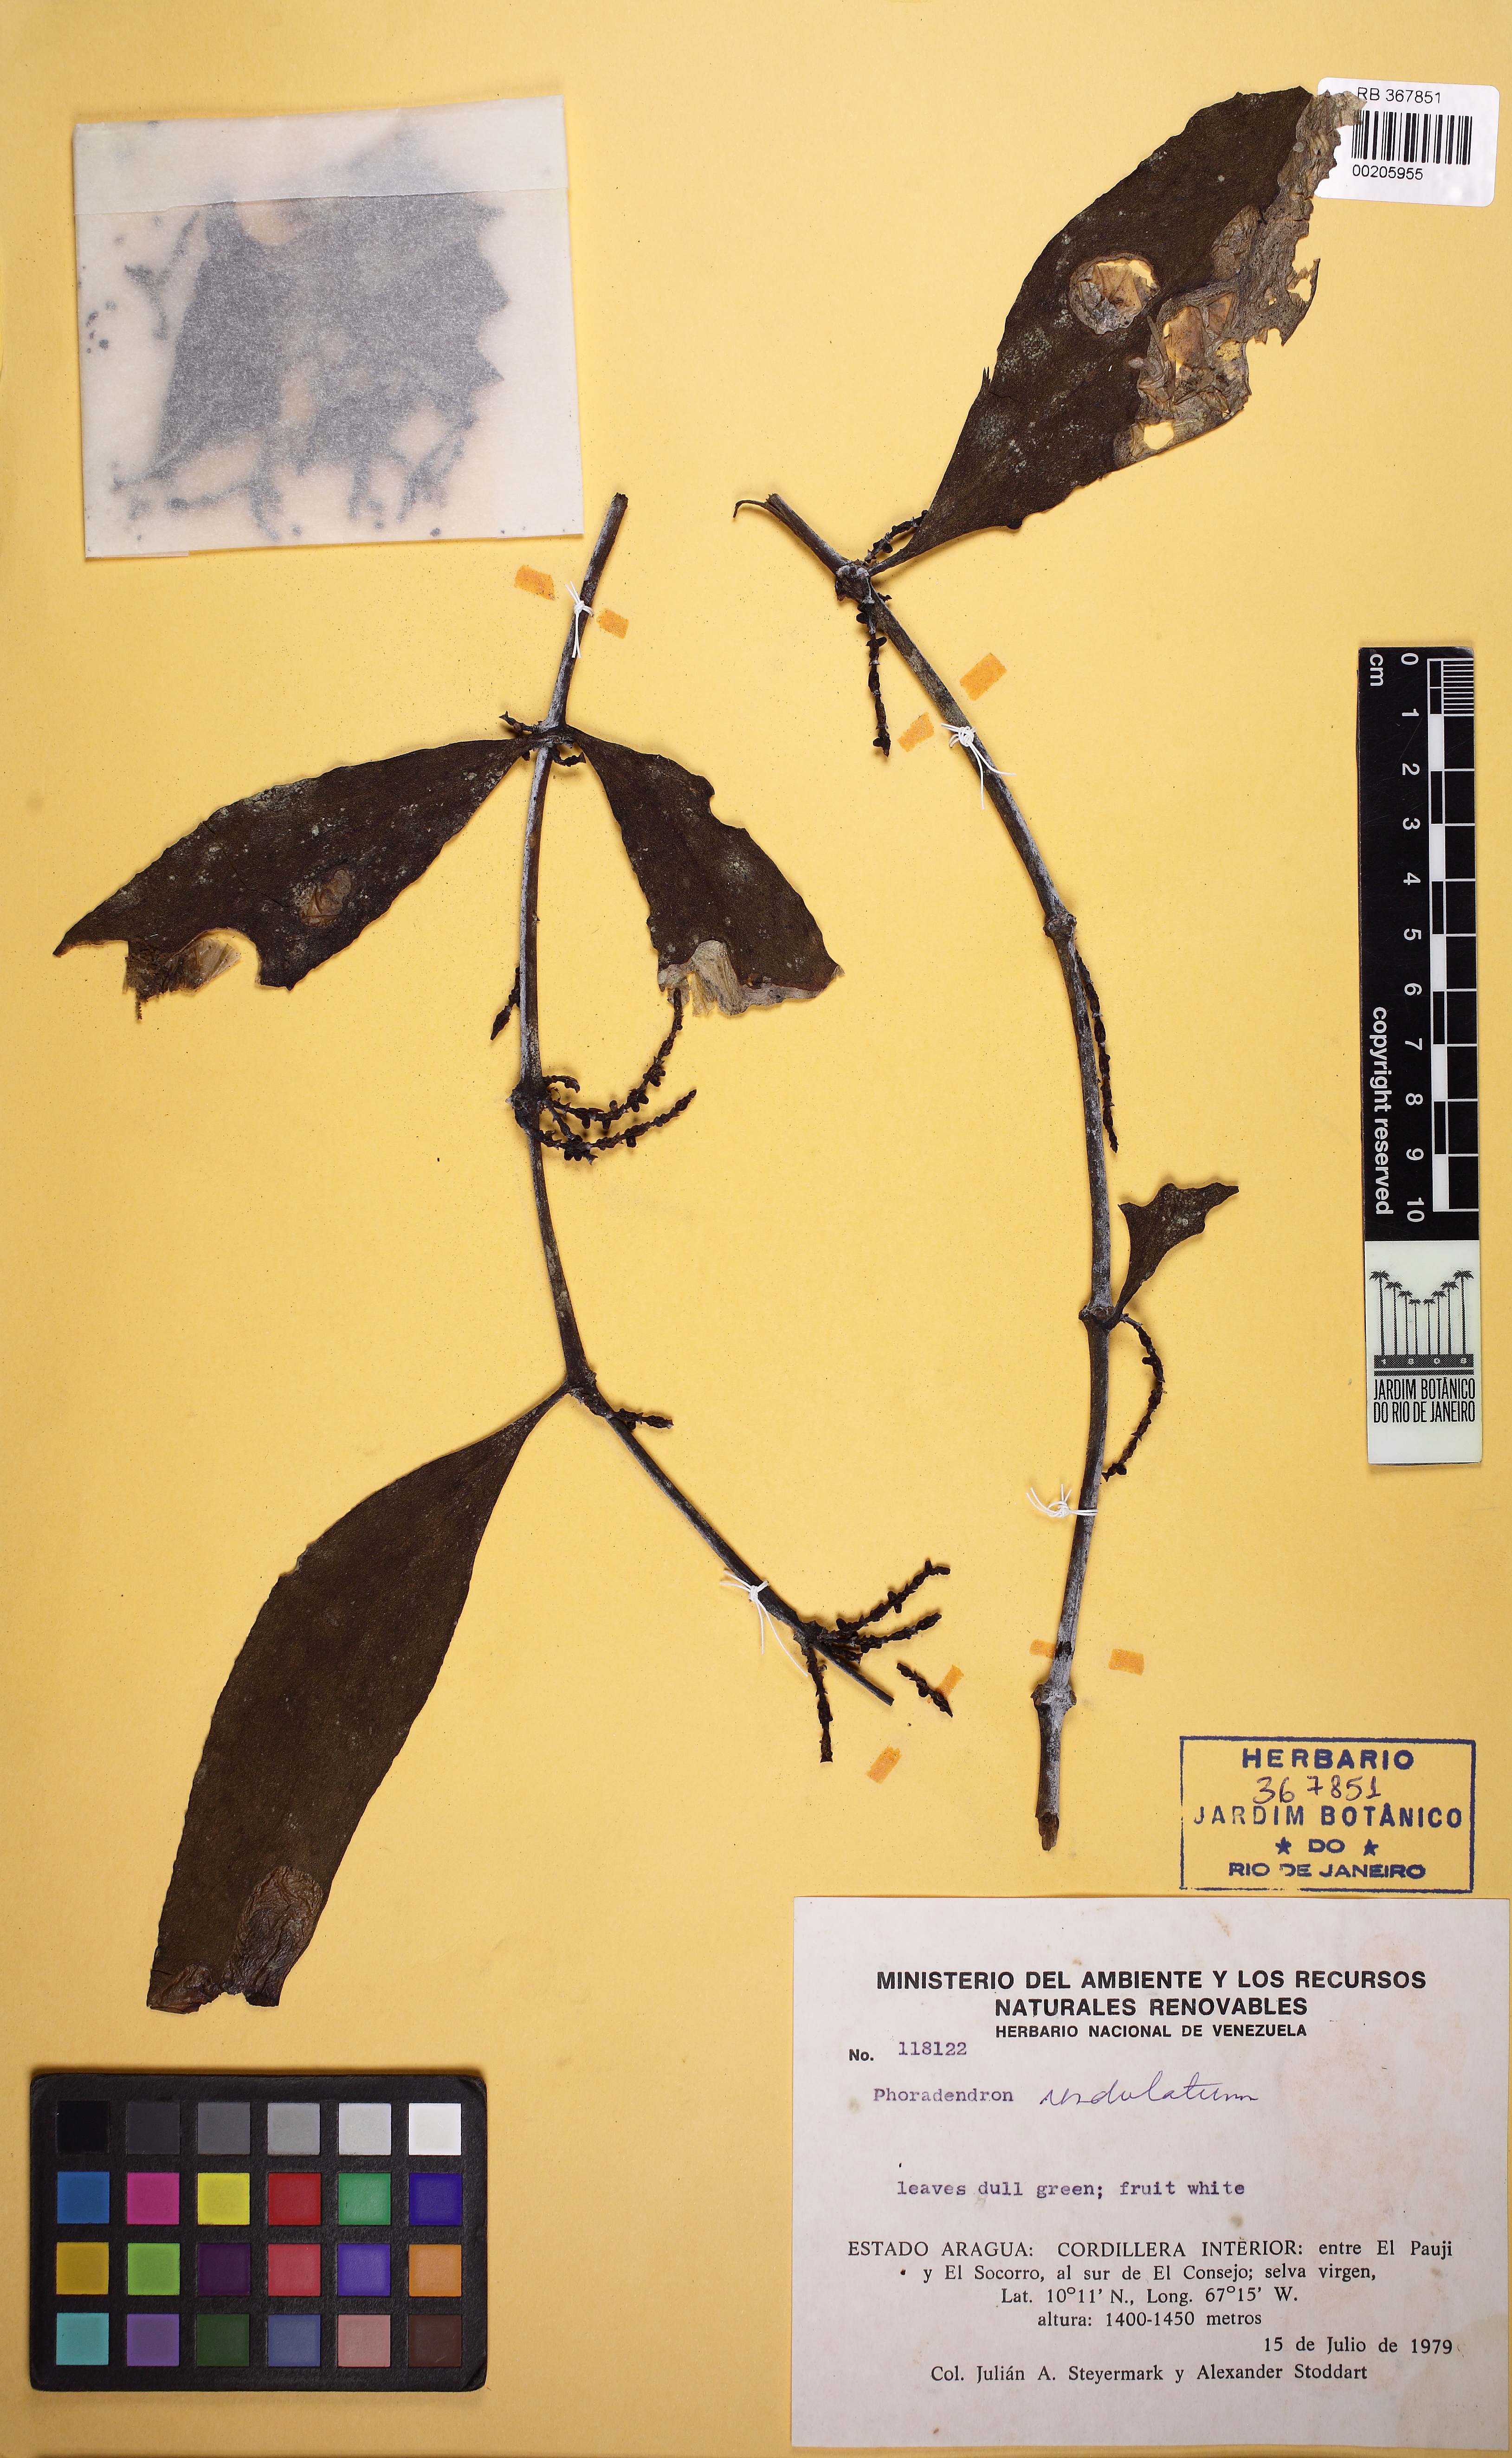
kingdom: Plantae
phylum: Tracheophyta
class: Magnoliopsida
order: Santalales
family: Viscaceae
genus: Phoradendron
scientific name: Phoradendron undulatum
